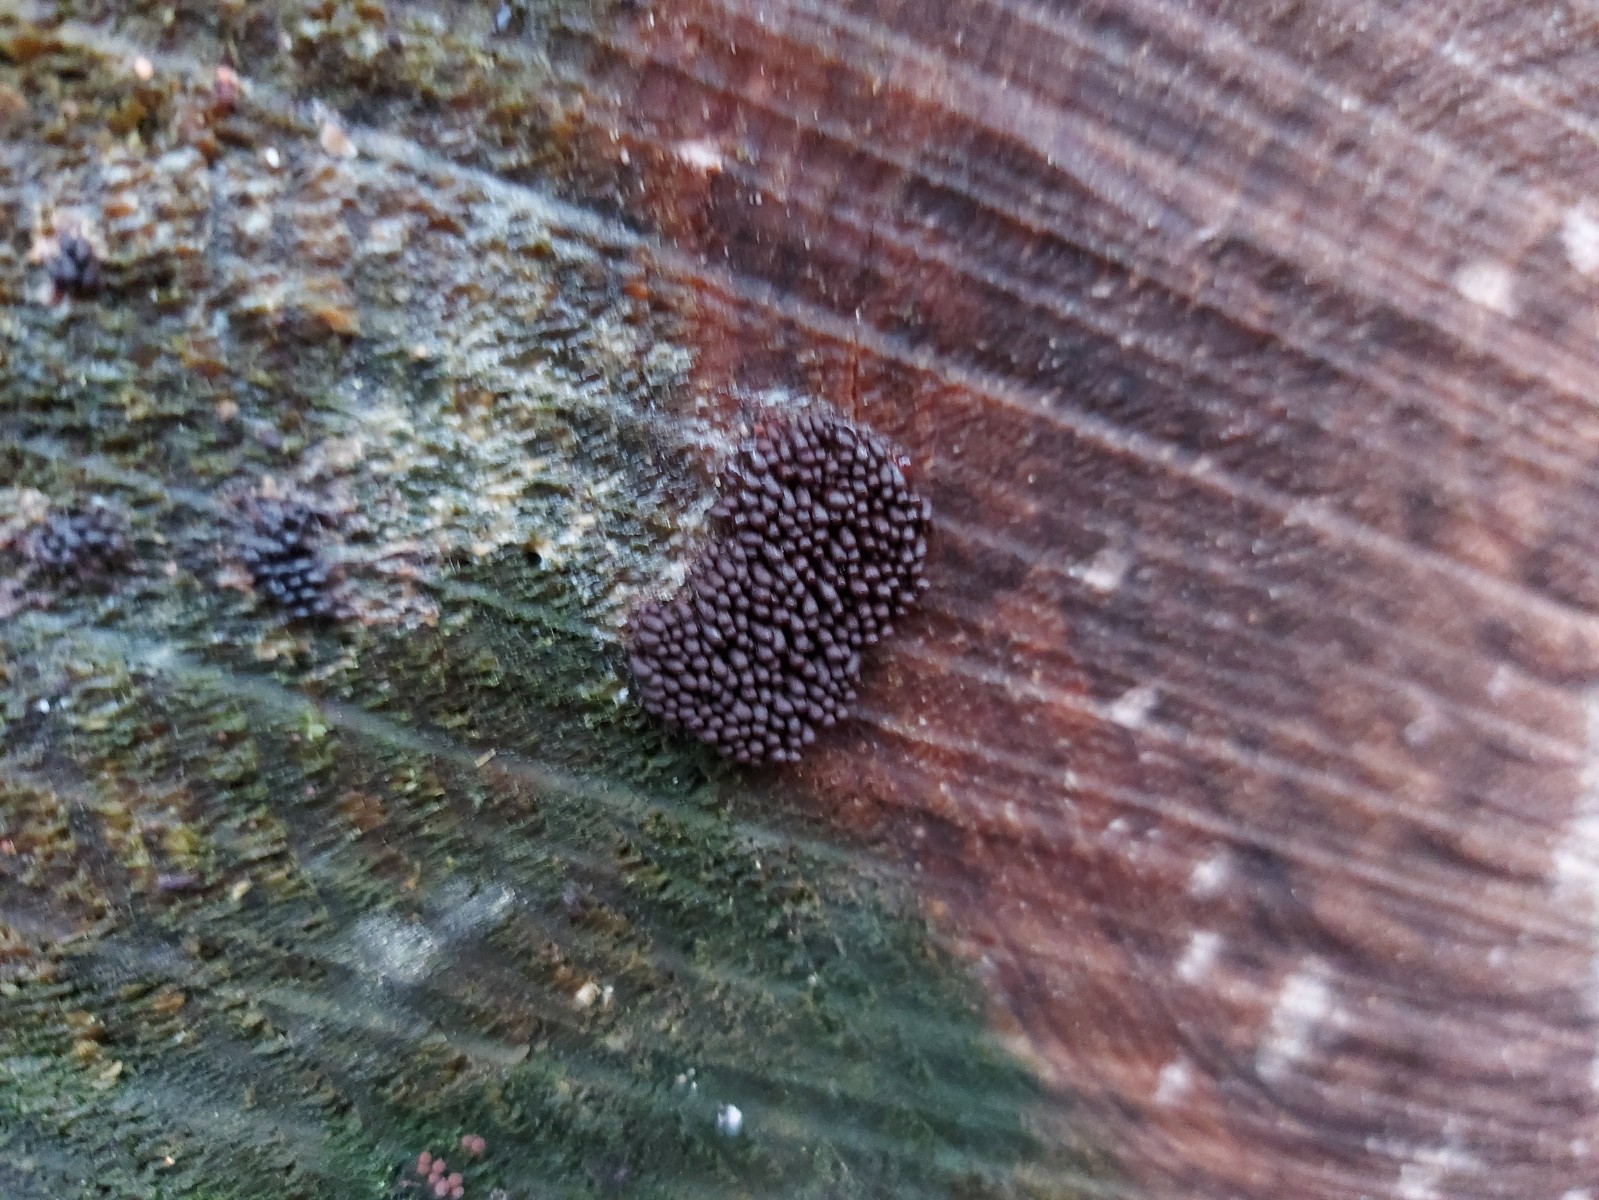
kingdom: Protozoa
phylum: Mycetozoa
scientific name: Mycetozoa
